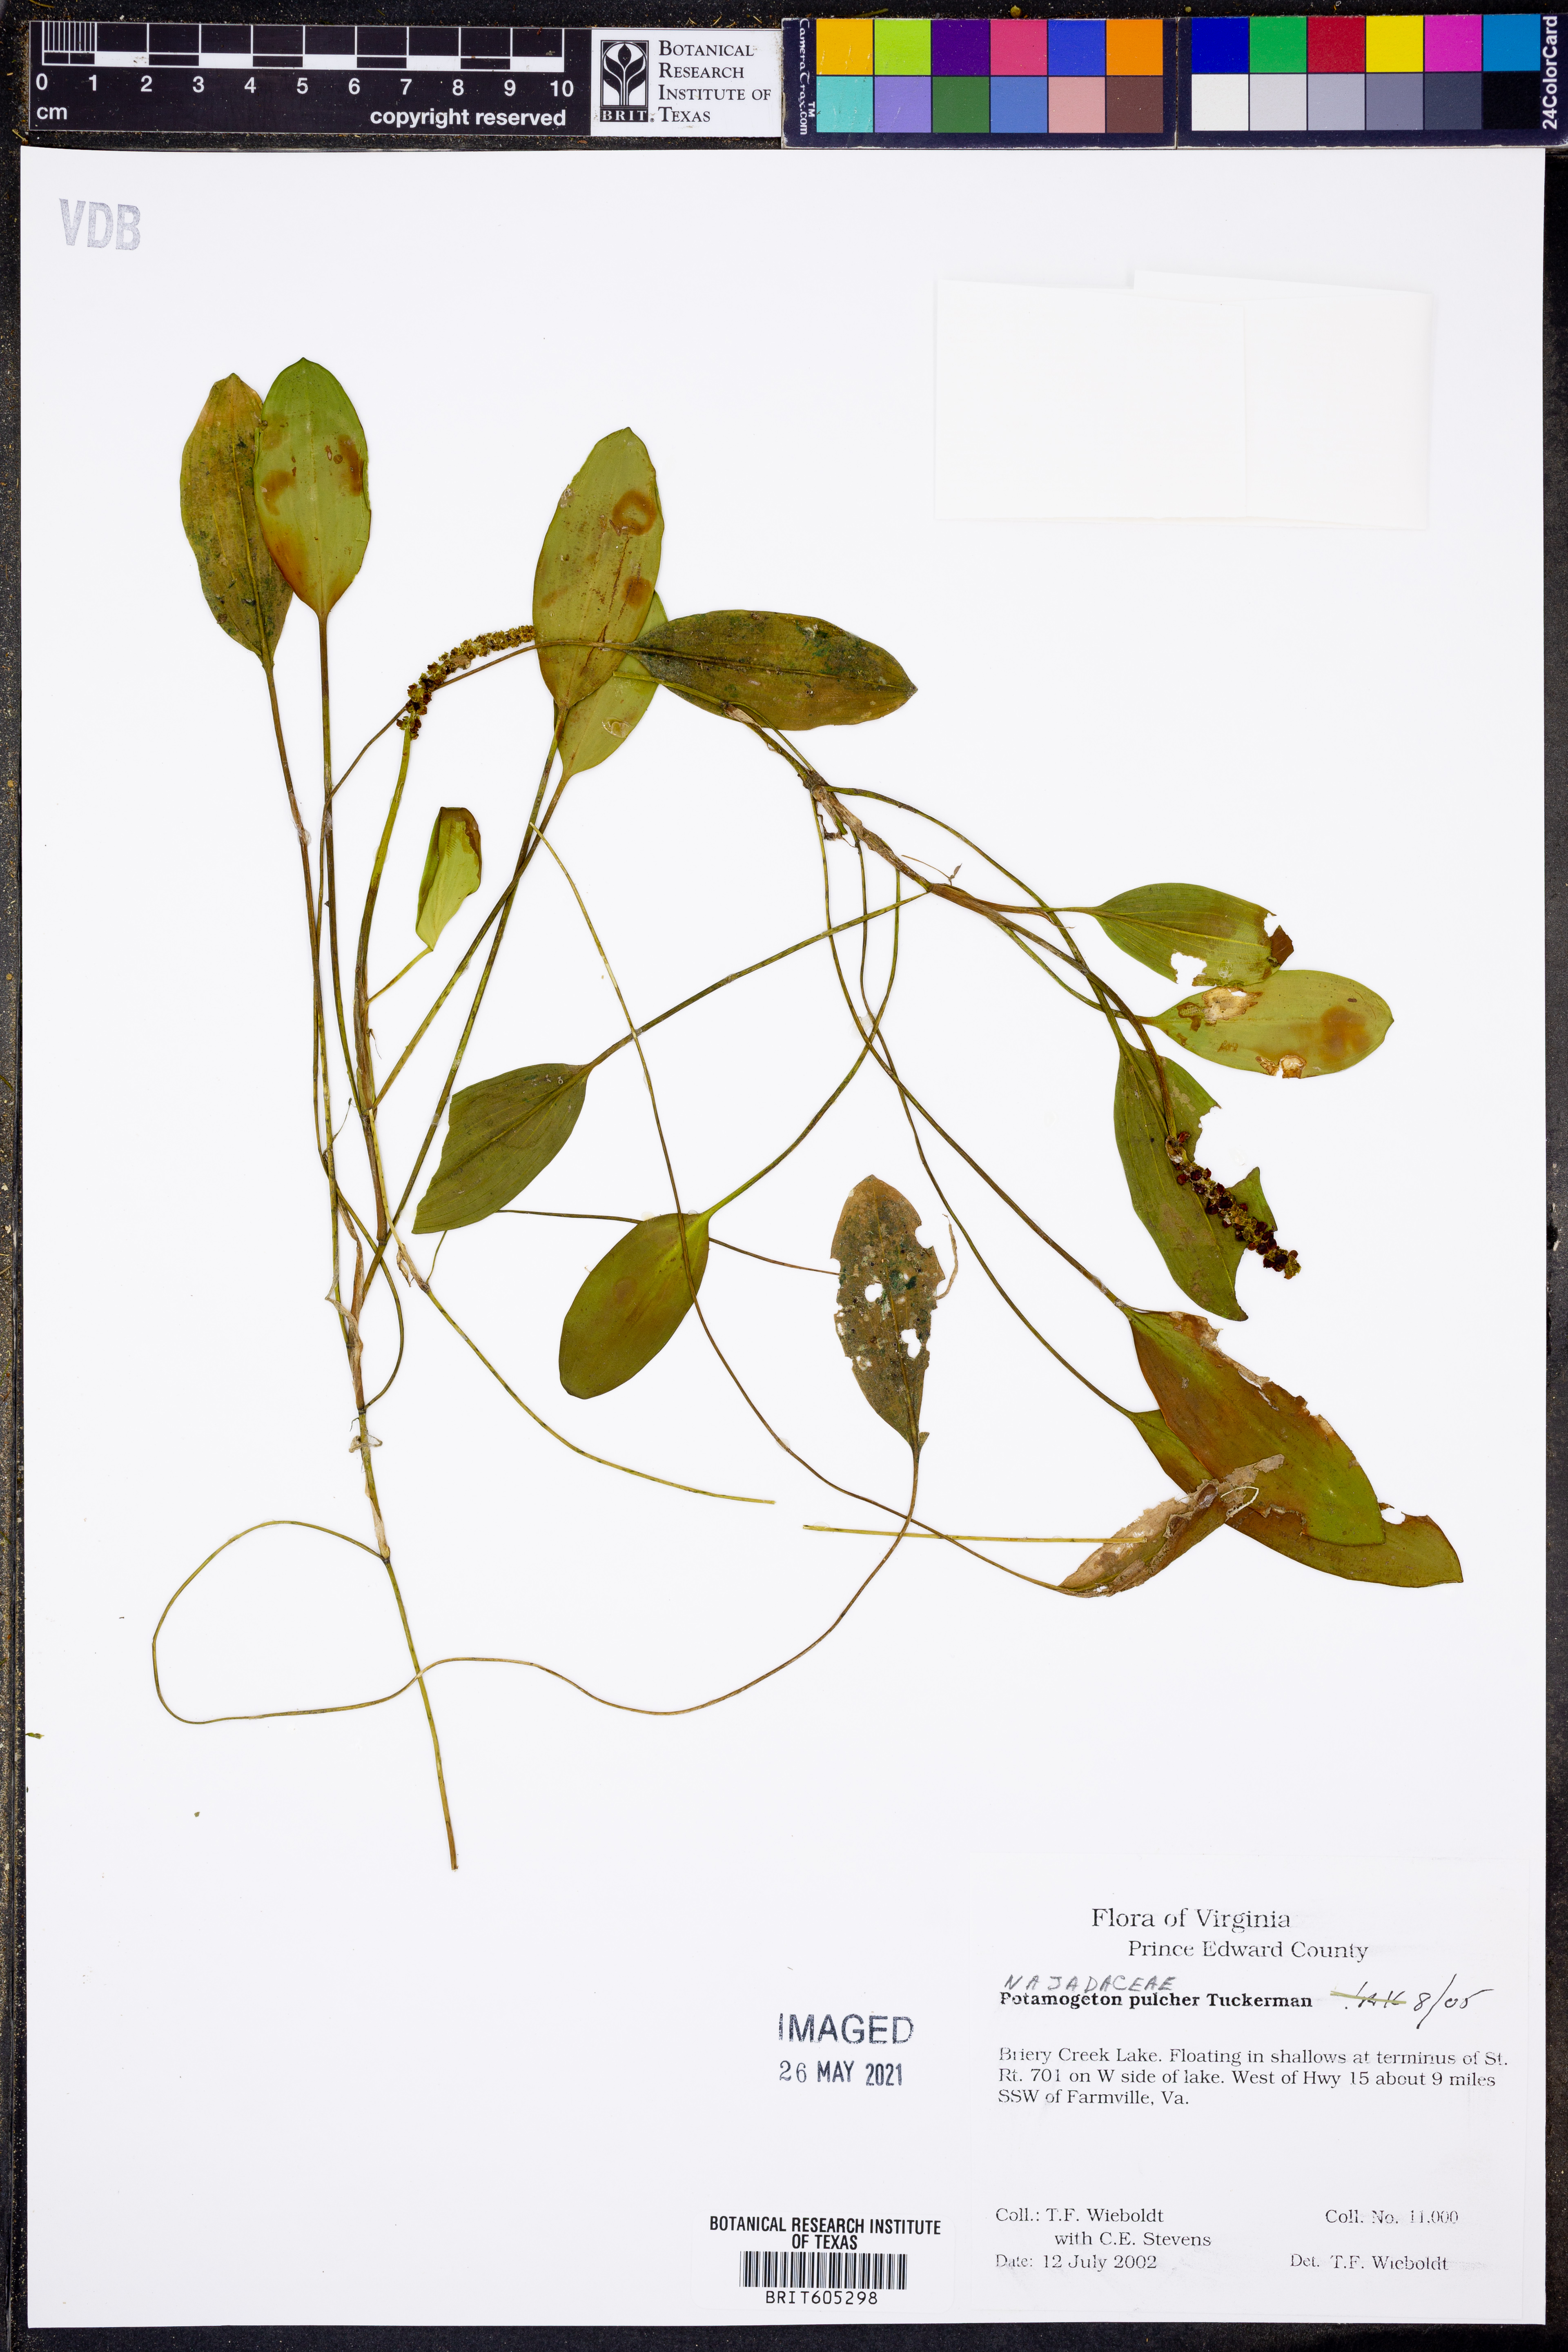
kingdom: Plantae
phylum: Tracheophyta
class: Liliopsida
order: Alismatales
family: Potamogetonaceae
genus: Potamogeton
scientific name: Potamogeton pulcher
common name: Heart-leaved pondweed
